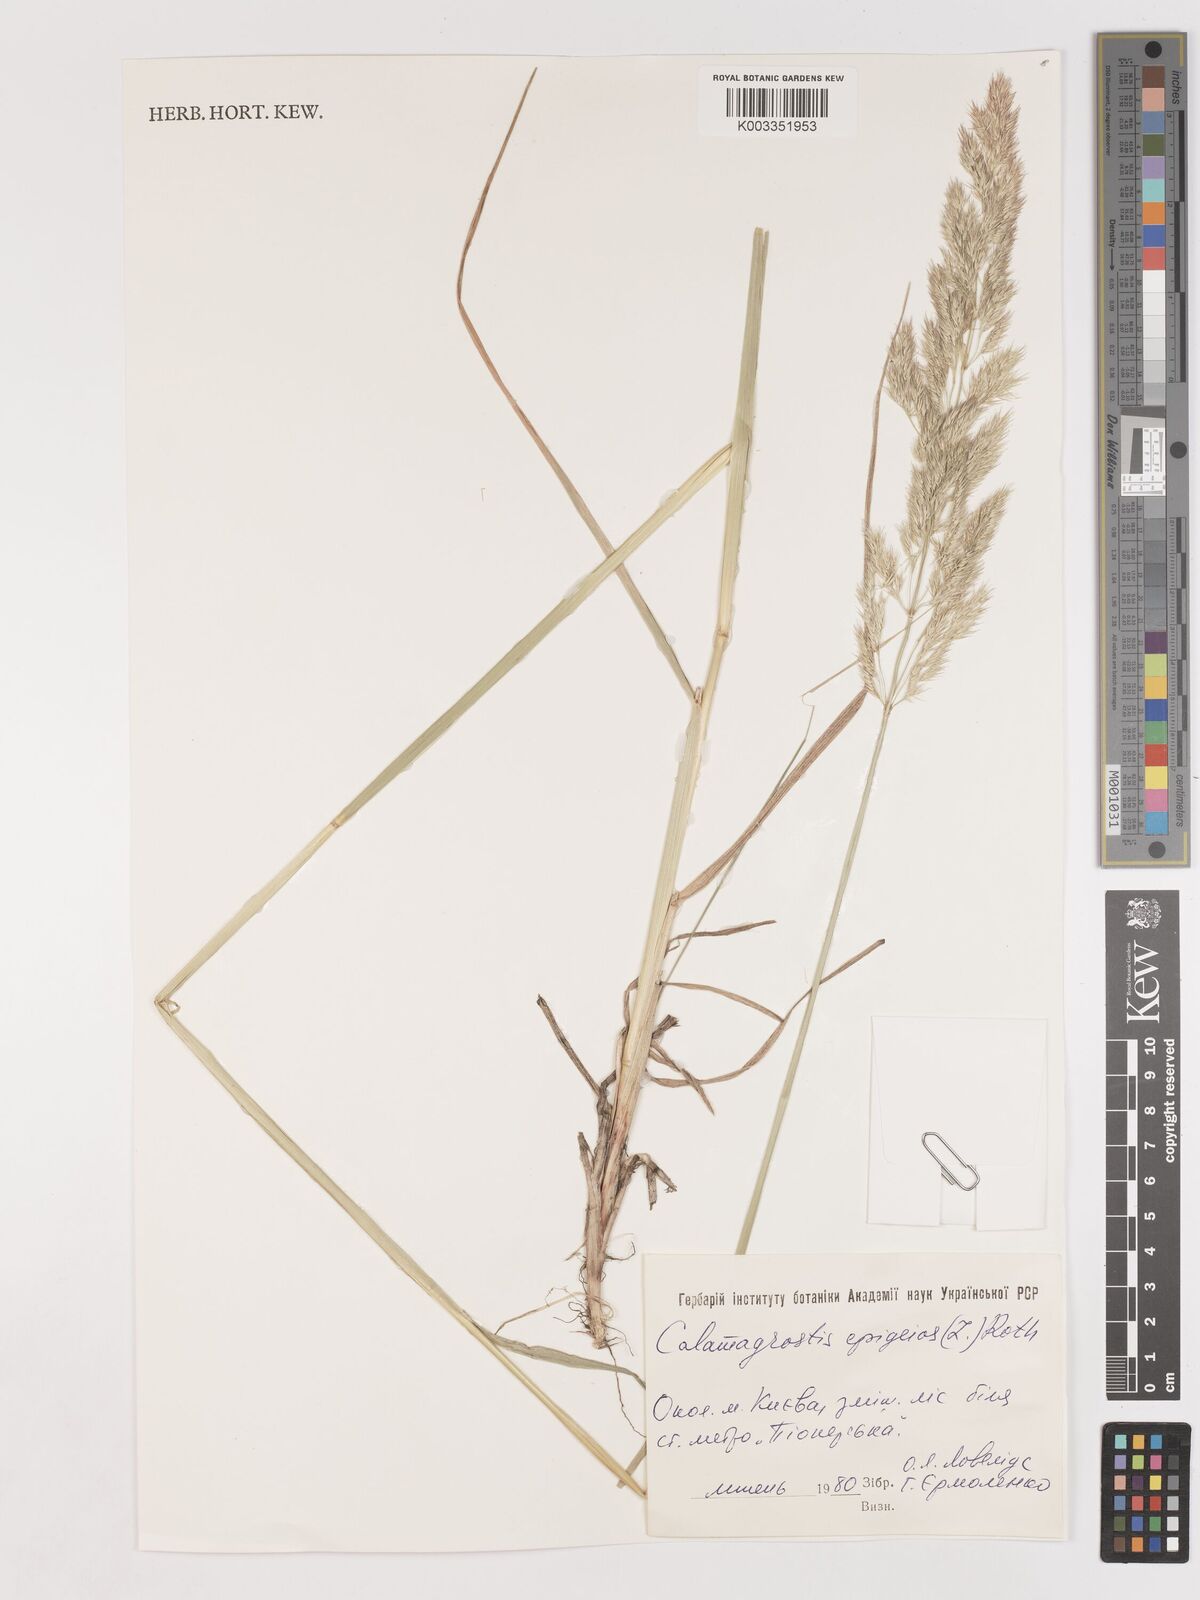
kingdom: Plantae
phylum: Tracheophyta
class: Liliopsida
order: Poales
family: Poaceae
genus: Calamagrostis
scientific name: Calamagrostis epigejos
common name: Wood small-reed
